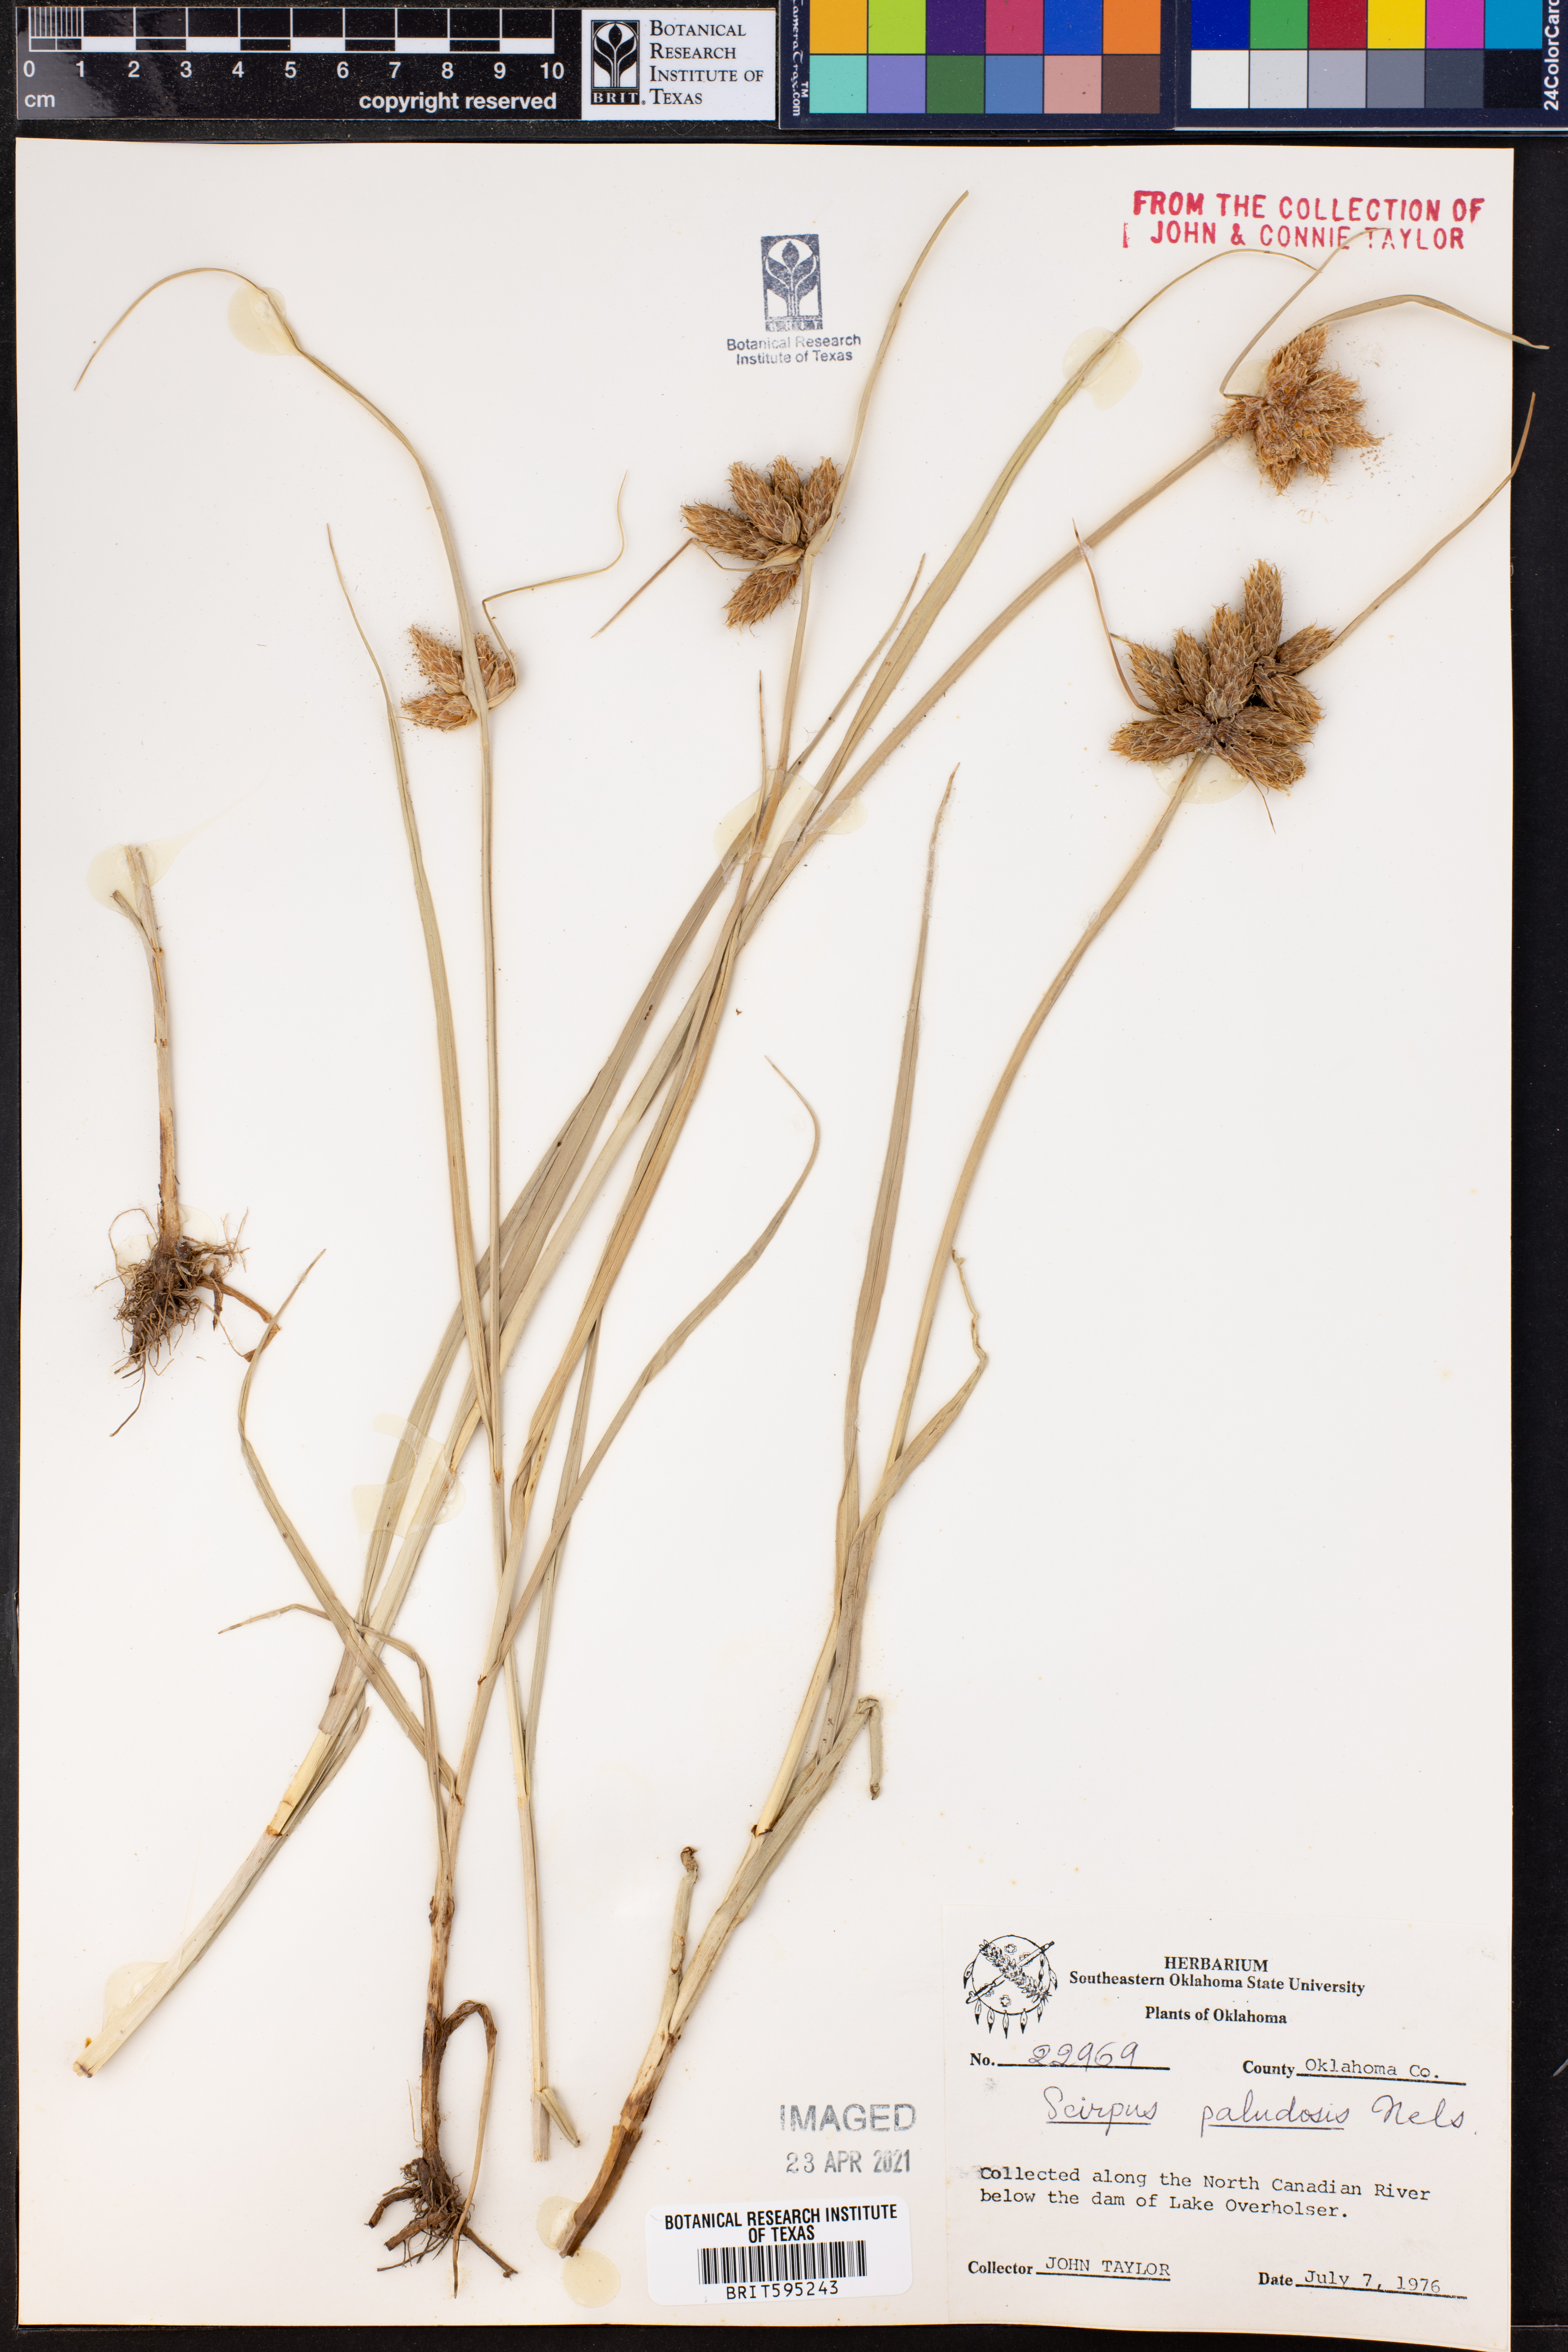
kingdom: Plantae
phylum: Tracheophyta
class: Liliopsida
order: Poales
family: Cyperaceae
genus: Bolboschoenus
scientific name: Bolboschoenus maritimus
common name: Sea club-rush
